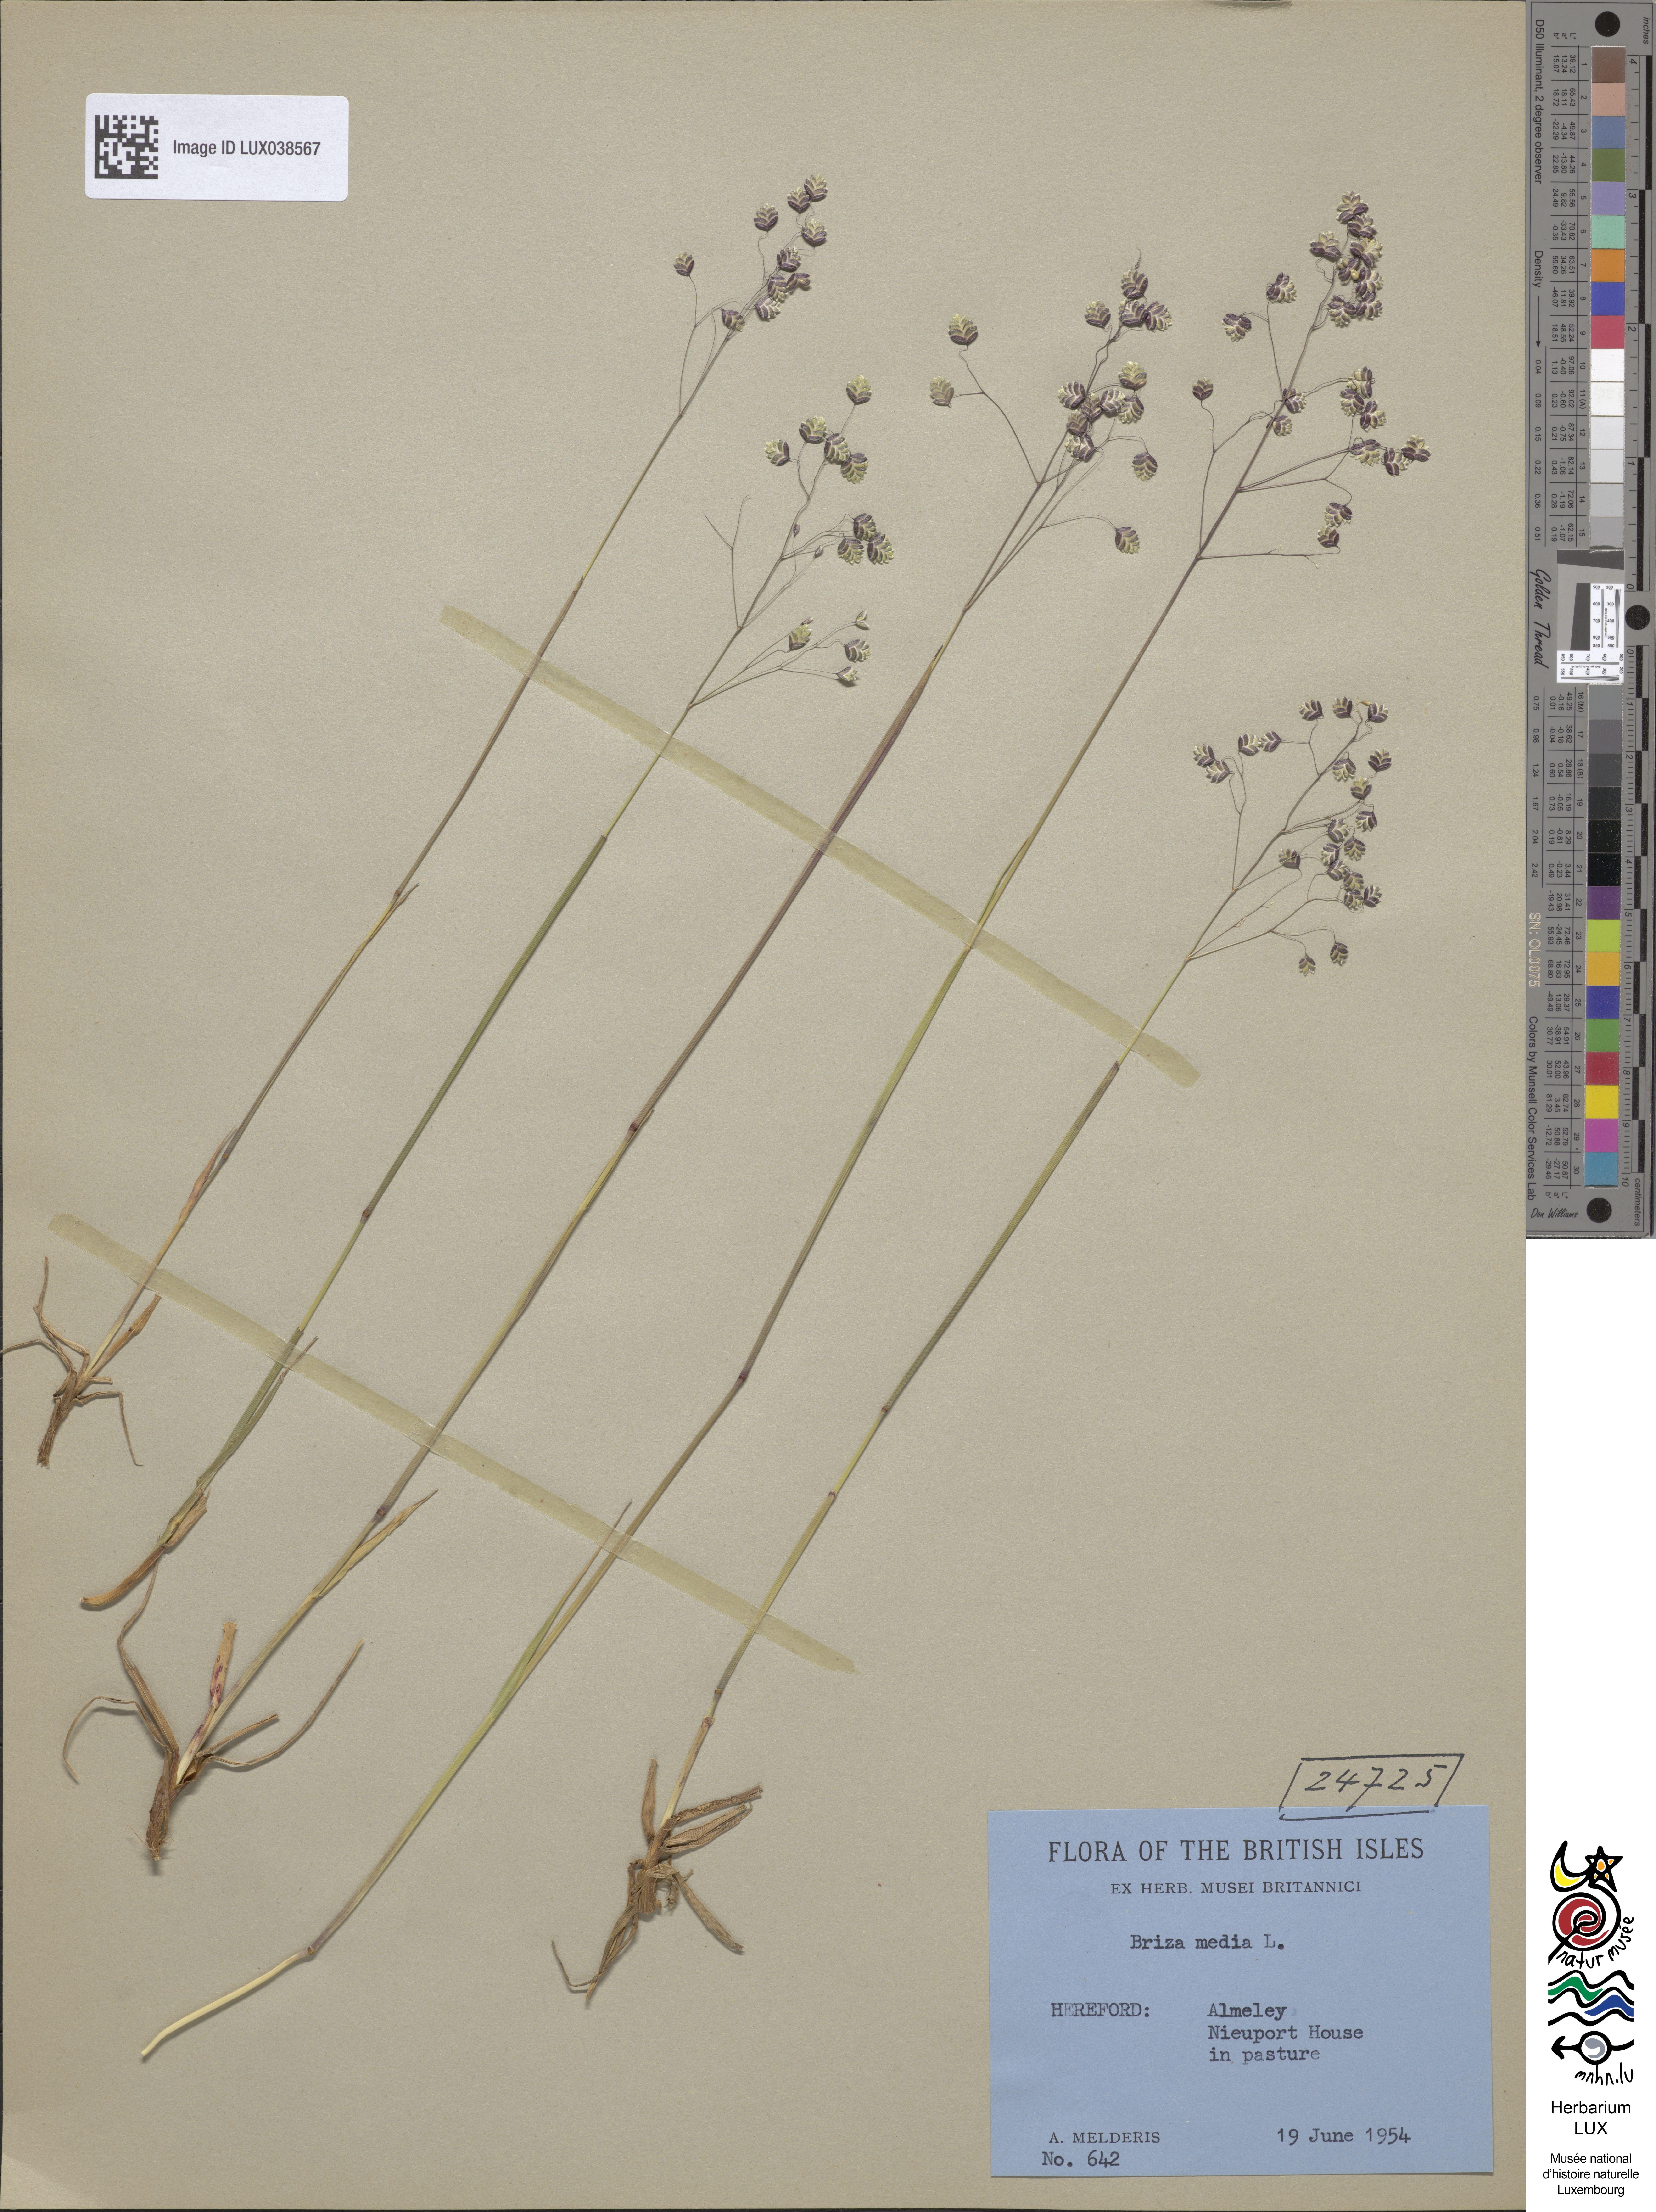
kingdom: Plantae
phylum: Tracheophyta
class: Liliopsida
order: Poales
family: Poaceae
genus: Briza
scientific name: Briza media
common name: Quaking grass
